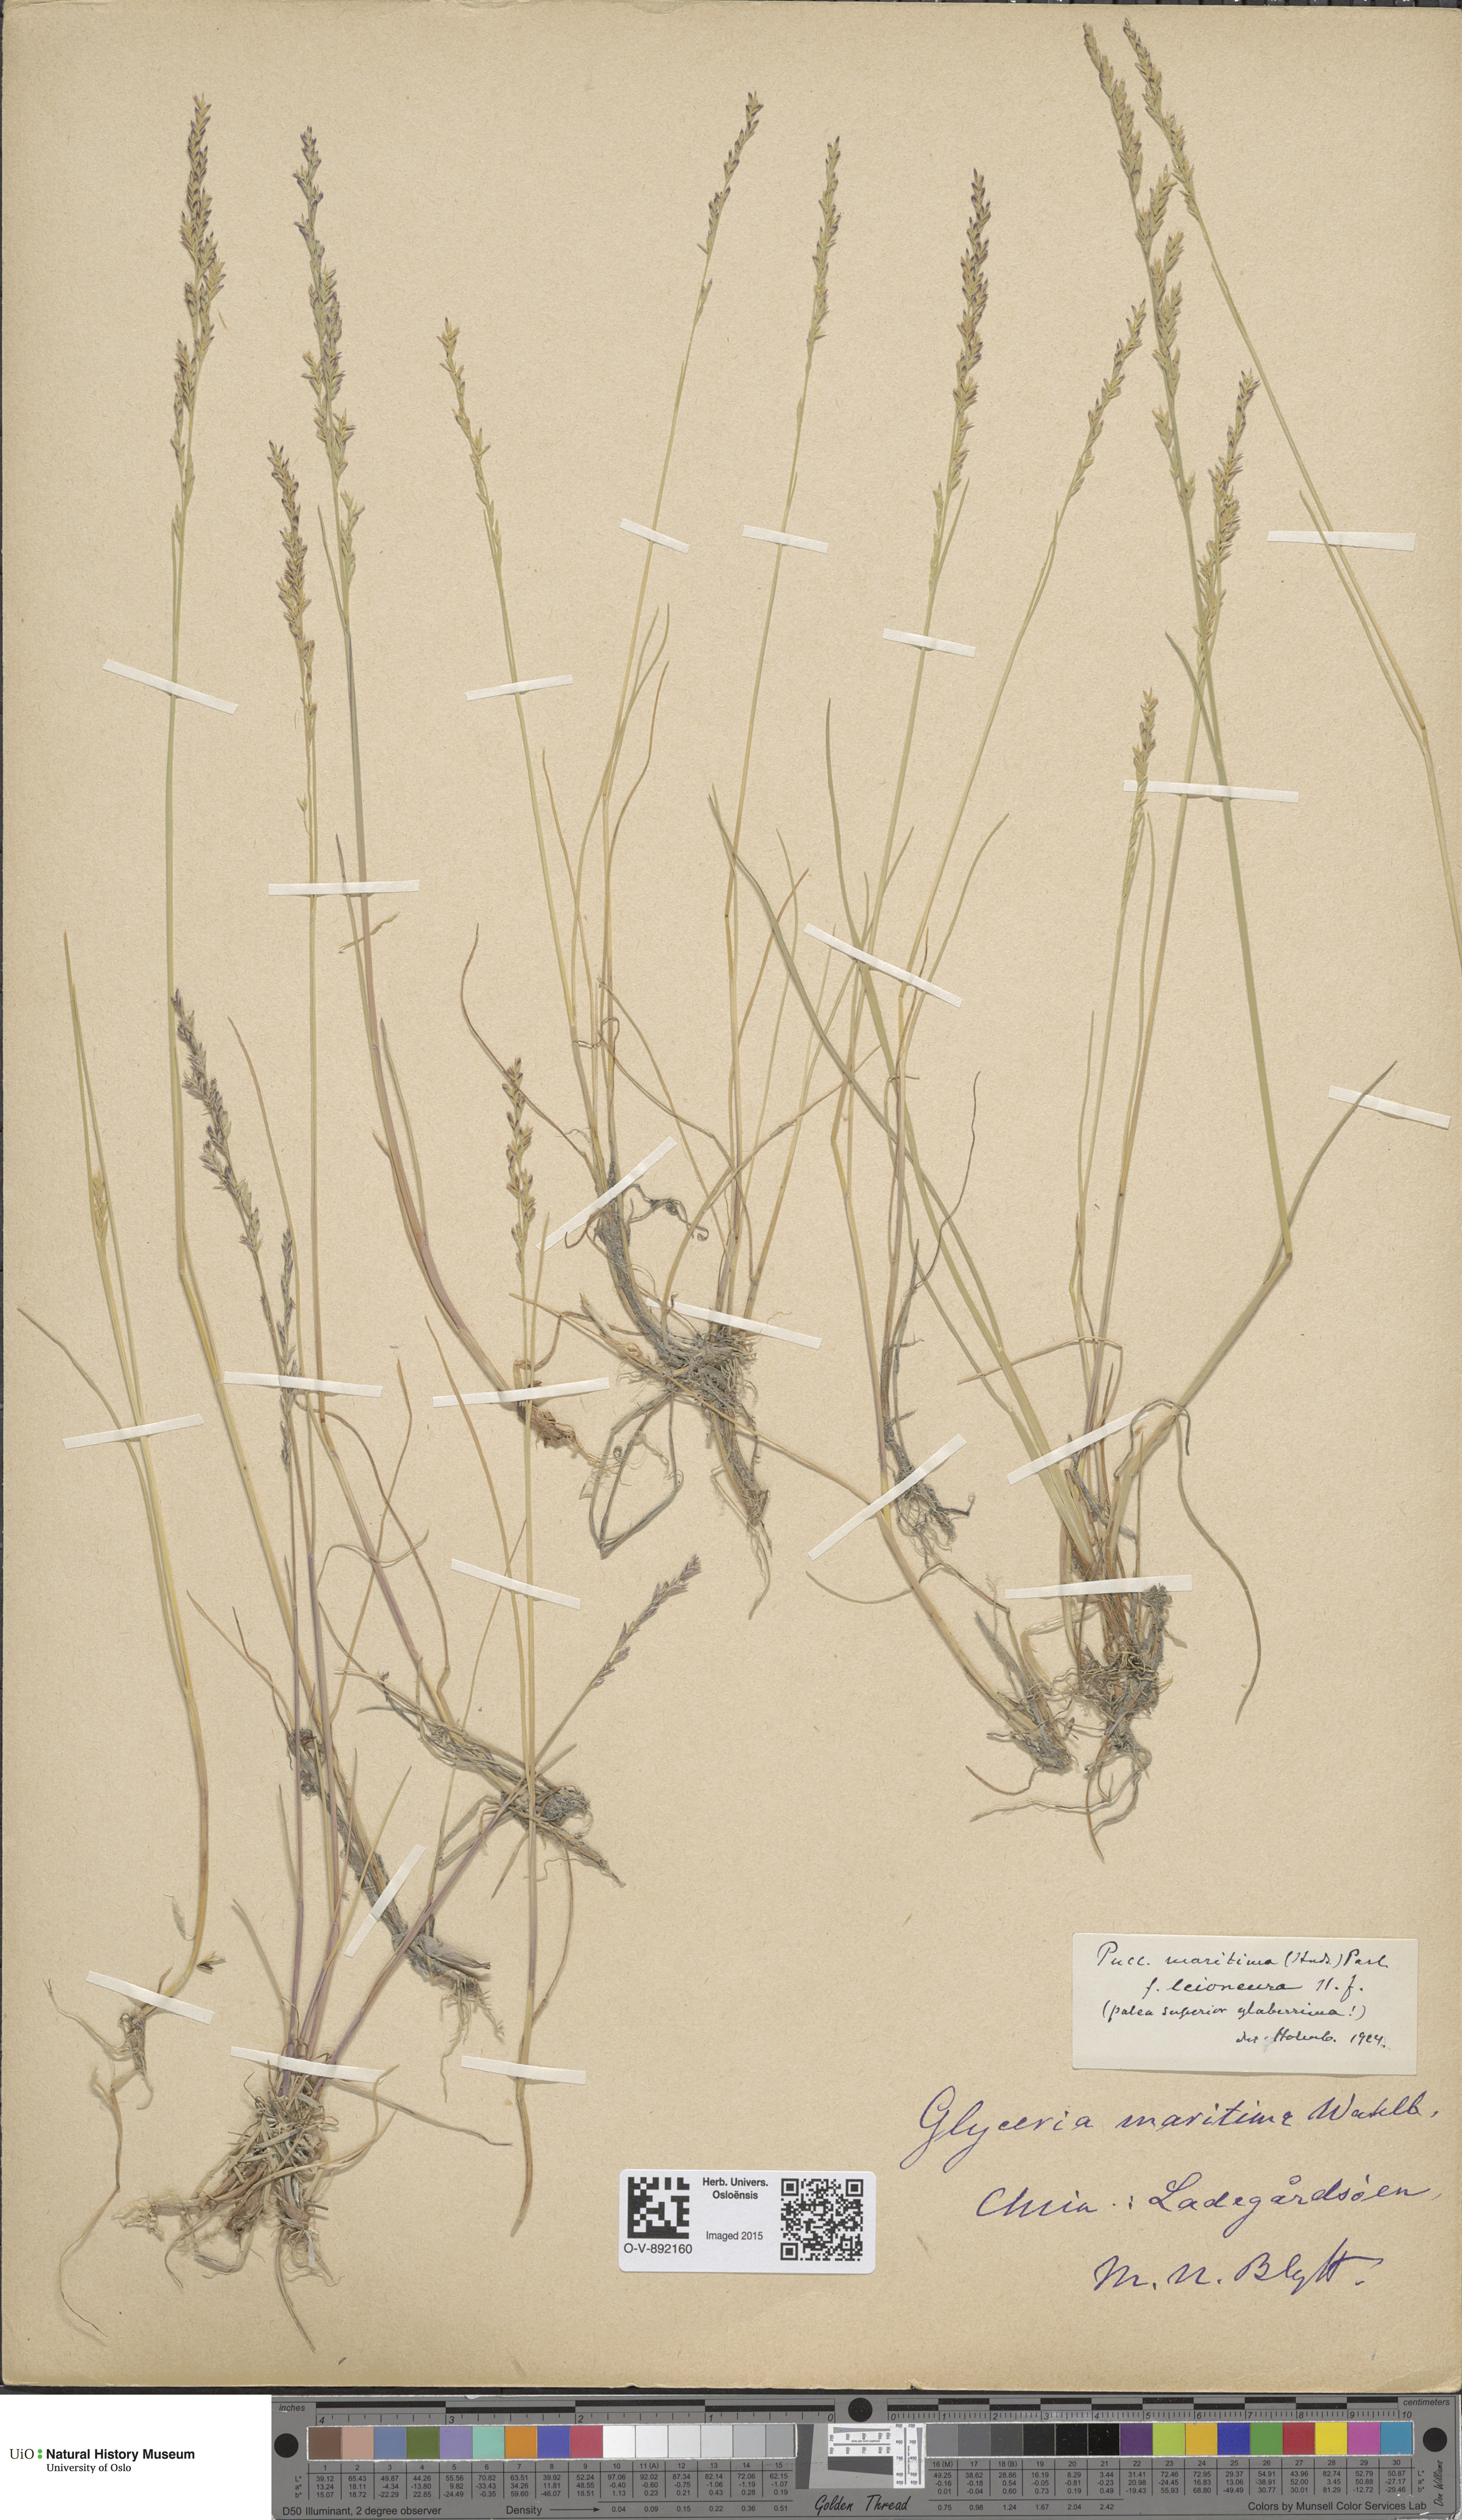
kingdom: Plantae
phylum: Tracheophyta
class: Liliopsida
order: Poales
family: Poaceae
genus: Puccinellia
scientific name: Puccinellia maritima
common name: Common saltmarsh grass
